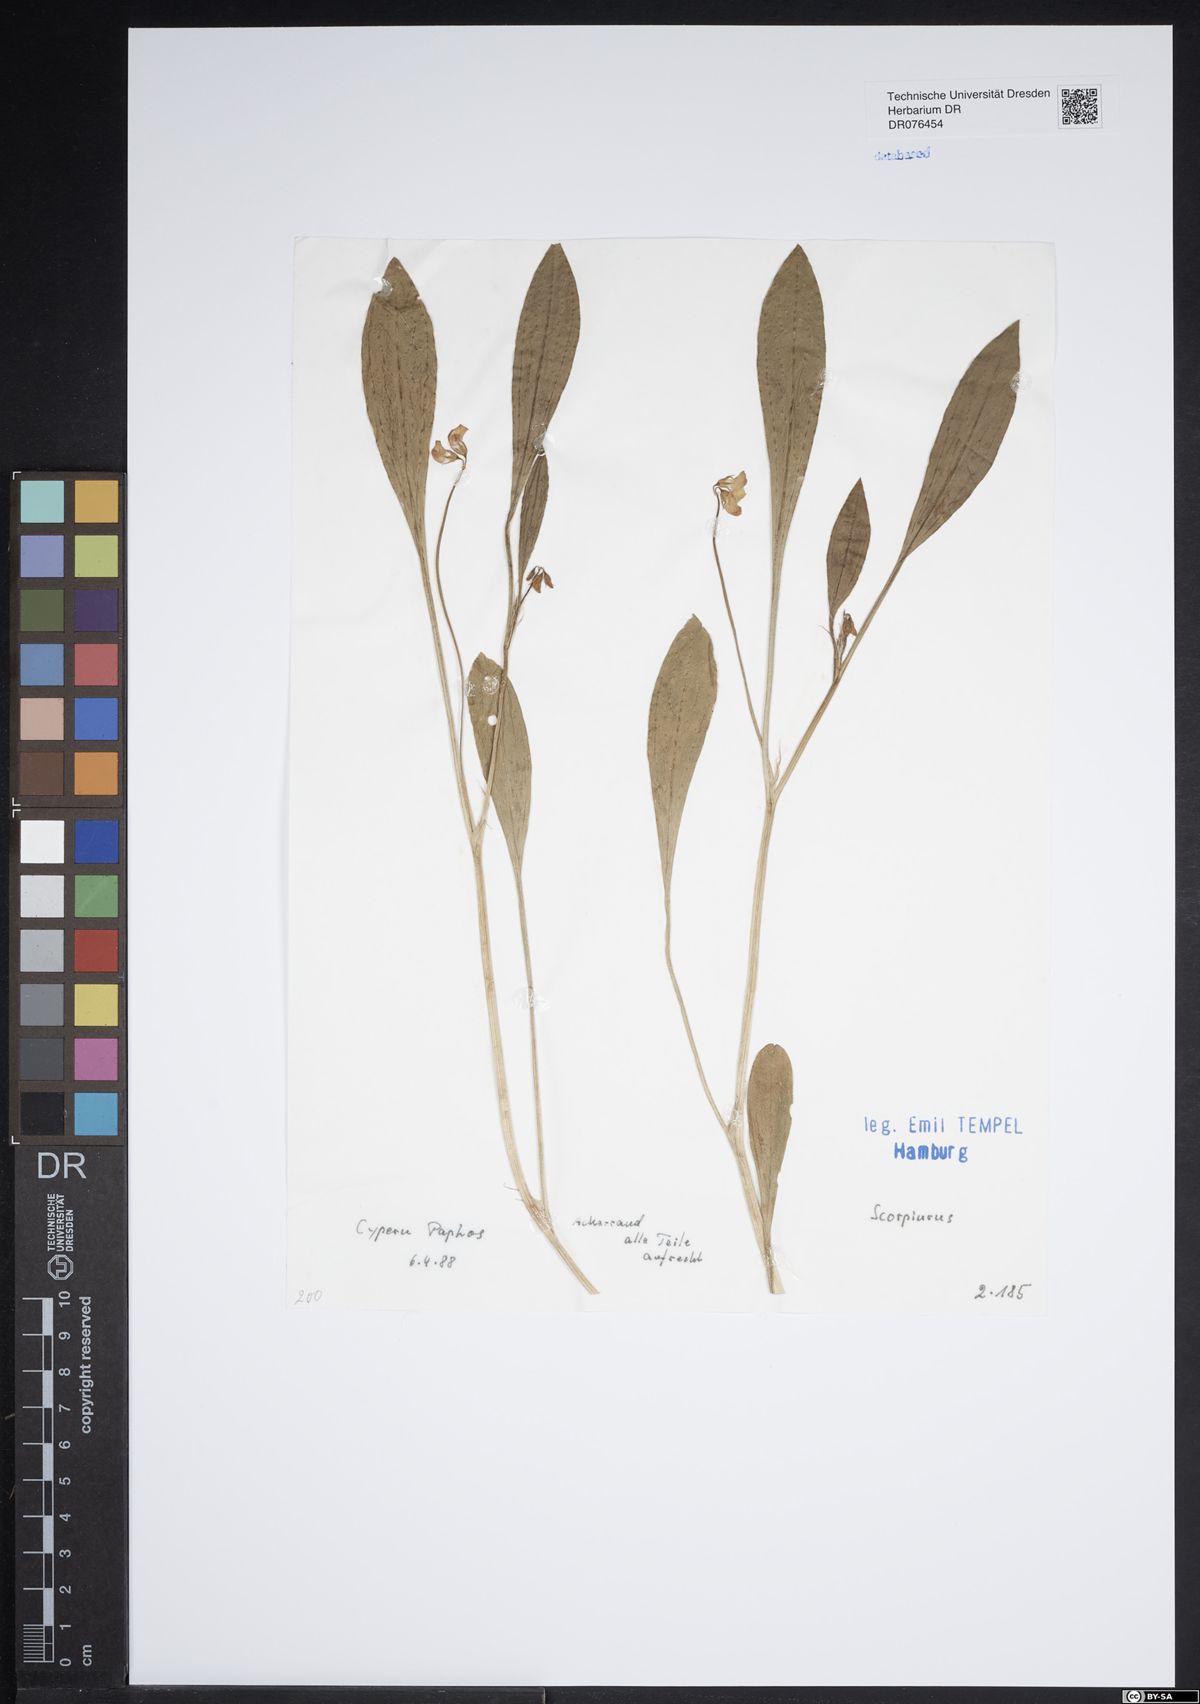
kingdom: Plantae
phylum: Tracheophyta
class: Magnoliopsida
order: Fabales
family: Fabaceae
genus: Scorpiurus
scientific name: Scorpiurus
